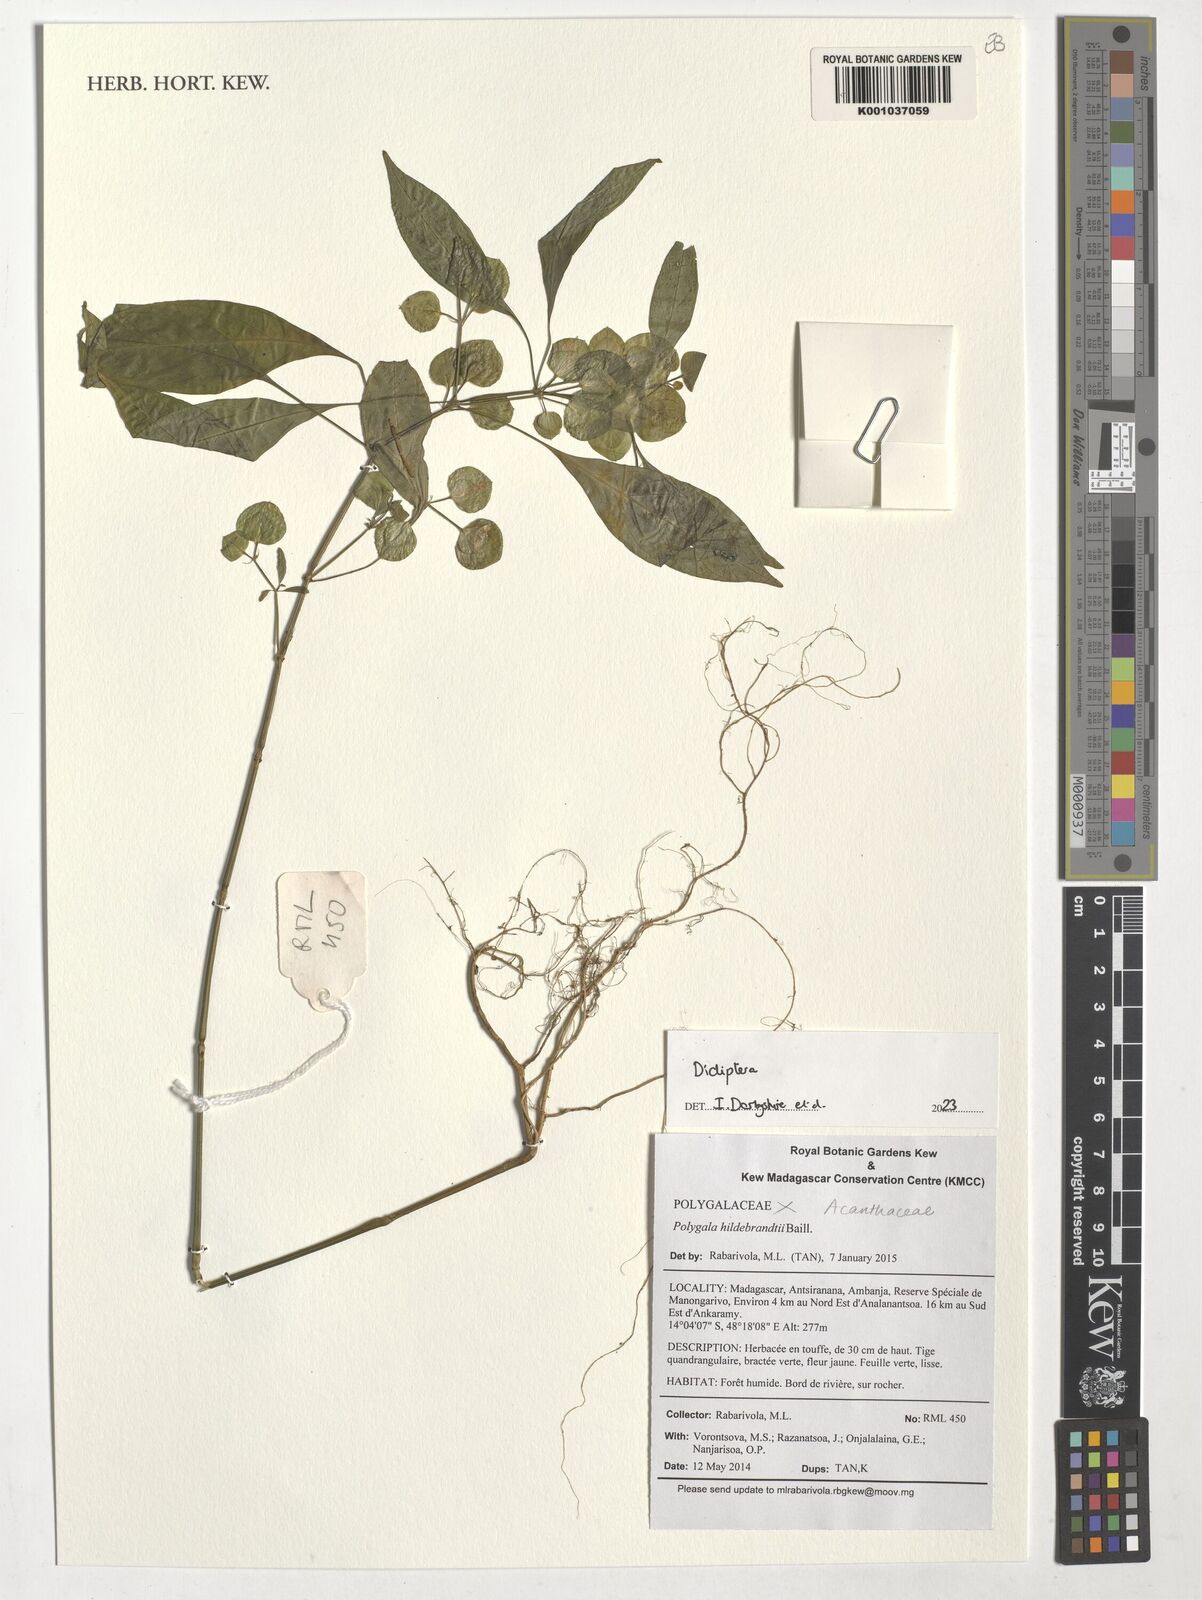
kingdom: Plantae
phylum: Tracheophyta
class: Magnoliopsida
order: Lamiales
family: Acanthaceae
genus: Dicliptera
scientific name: Dicliptera
